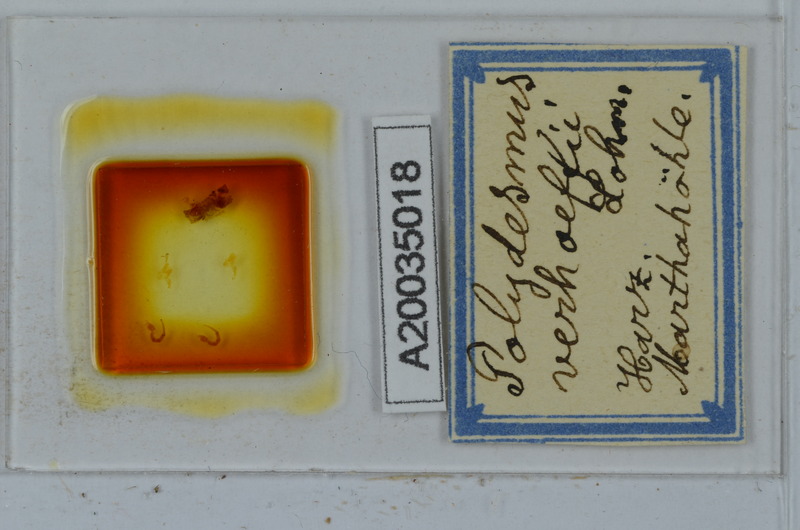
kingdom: Animalia
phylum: Arthropoda
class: Diplopoda
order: Polydesmida
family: Polydesmidae
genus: Polydesmus
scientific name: Polydesmus angustus
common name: Flat millipede
